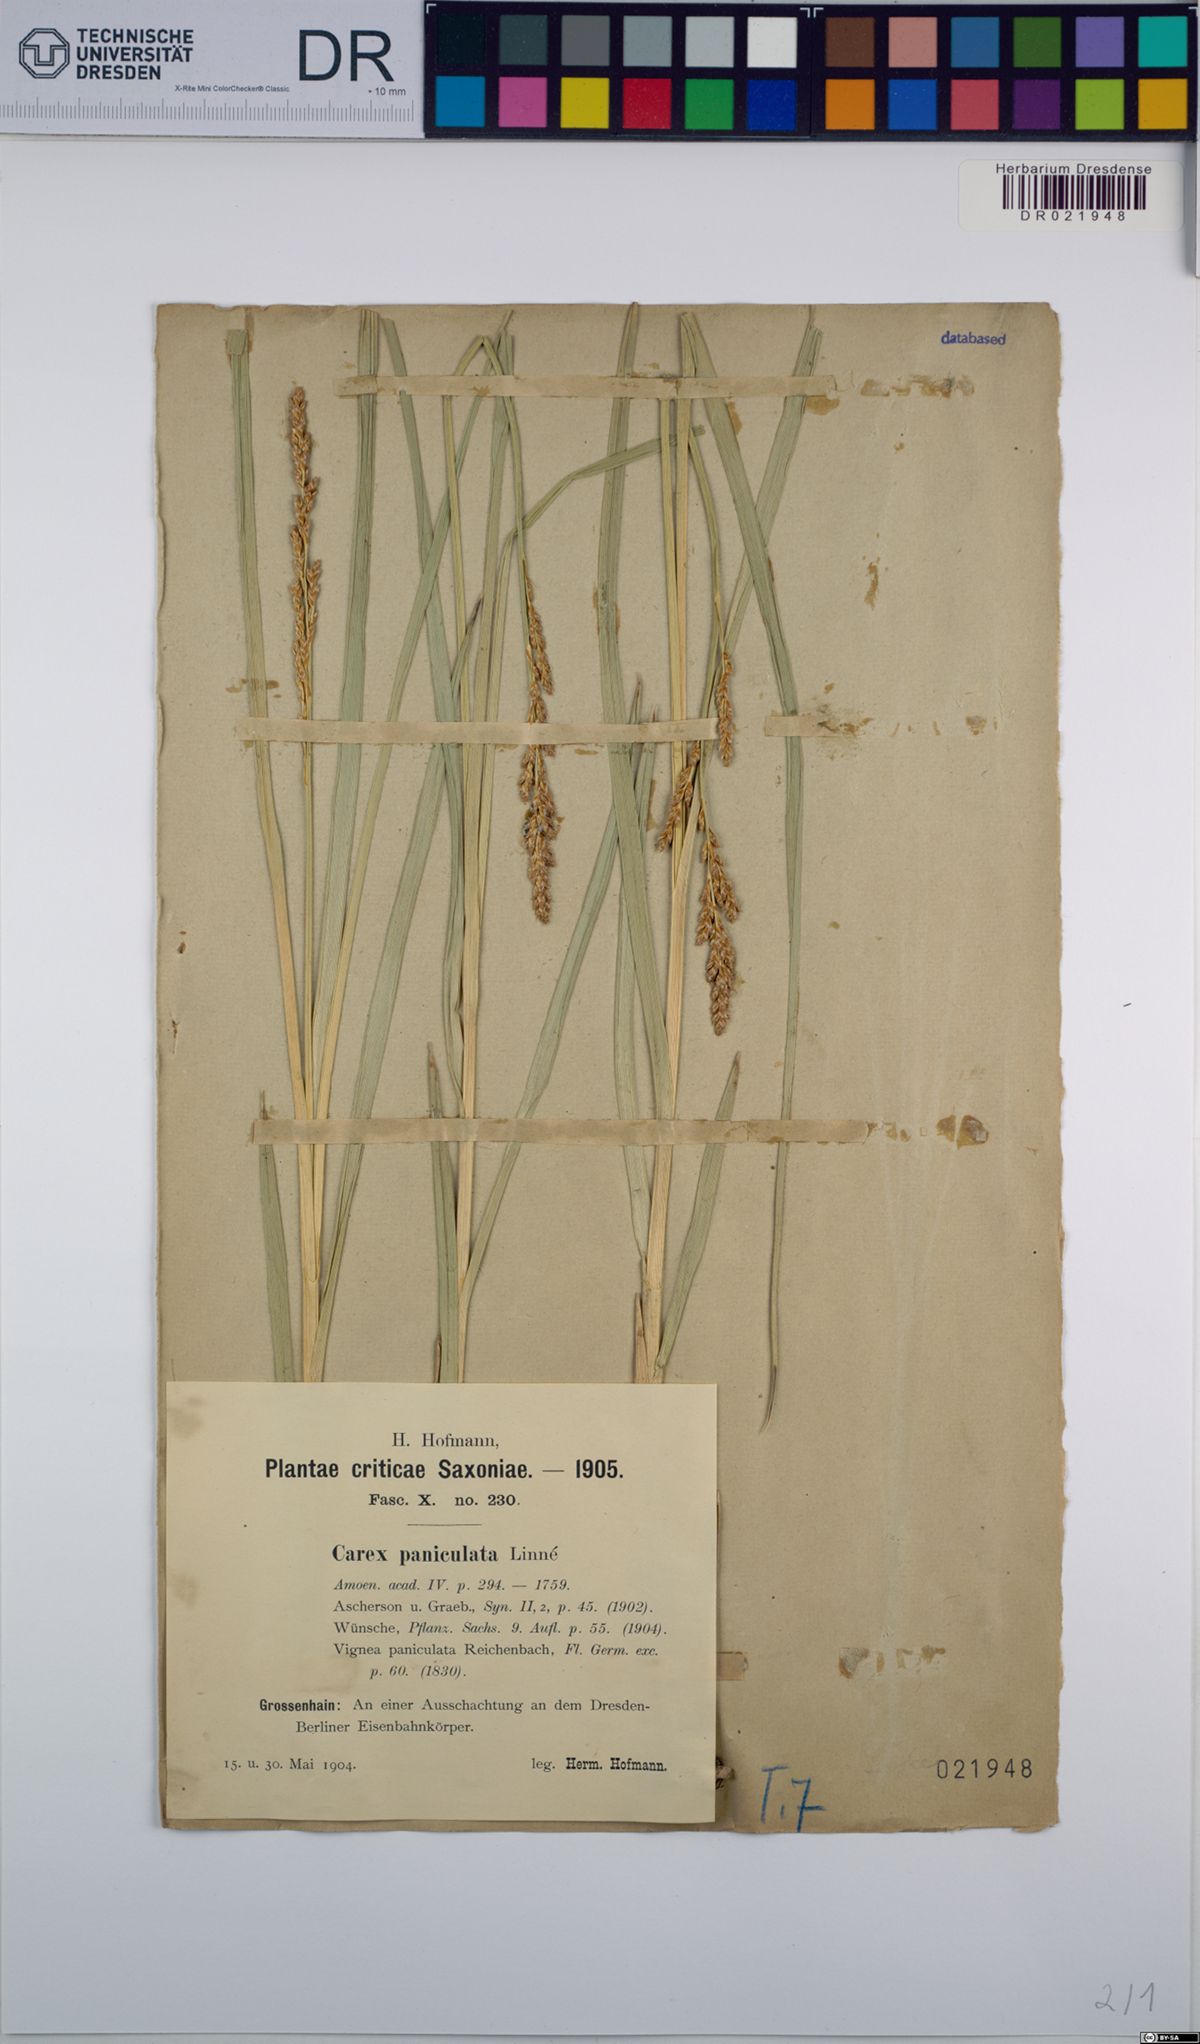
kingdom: Plantae
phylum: Tracheophyta
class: Liliopsida
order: Poales
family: Cyperaceae
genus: Carex
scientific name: Carex paniculata
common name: Greater tussock-sedge
